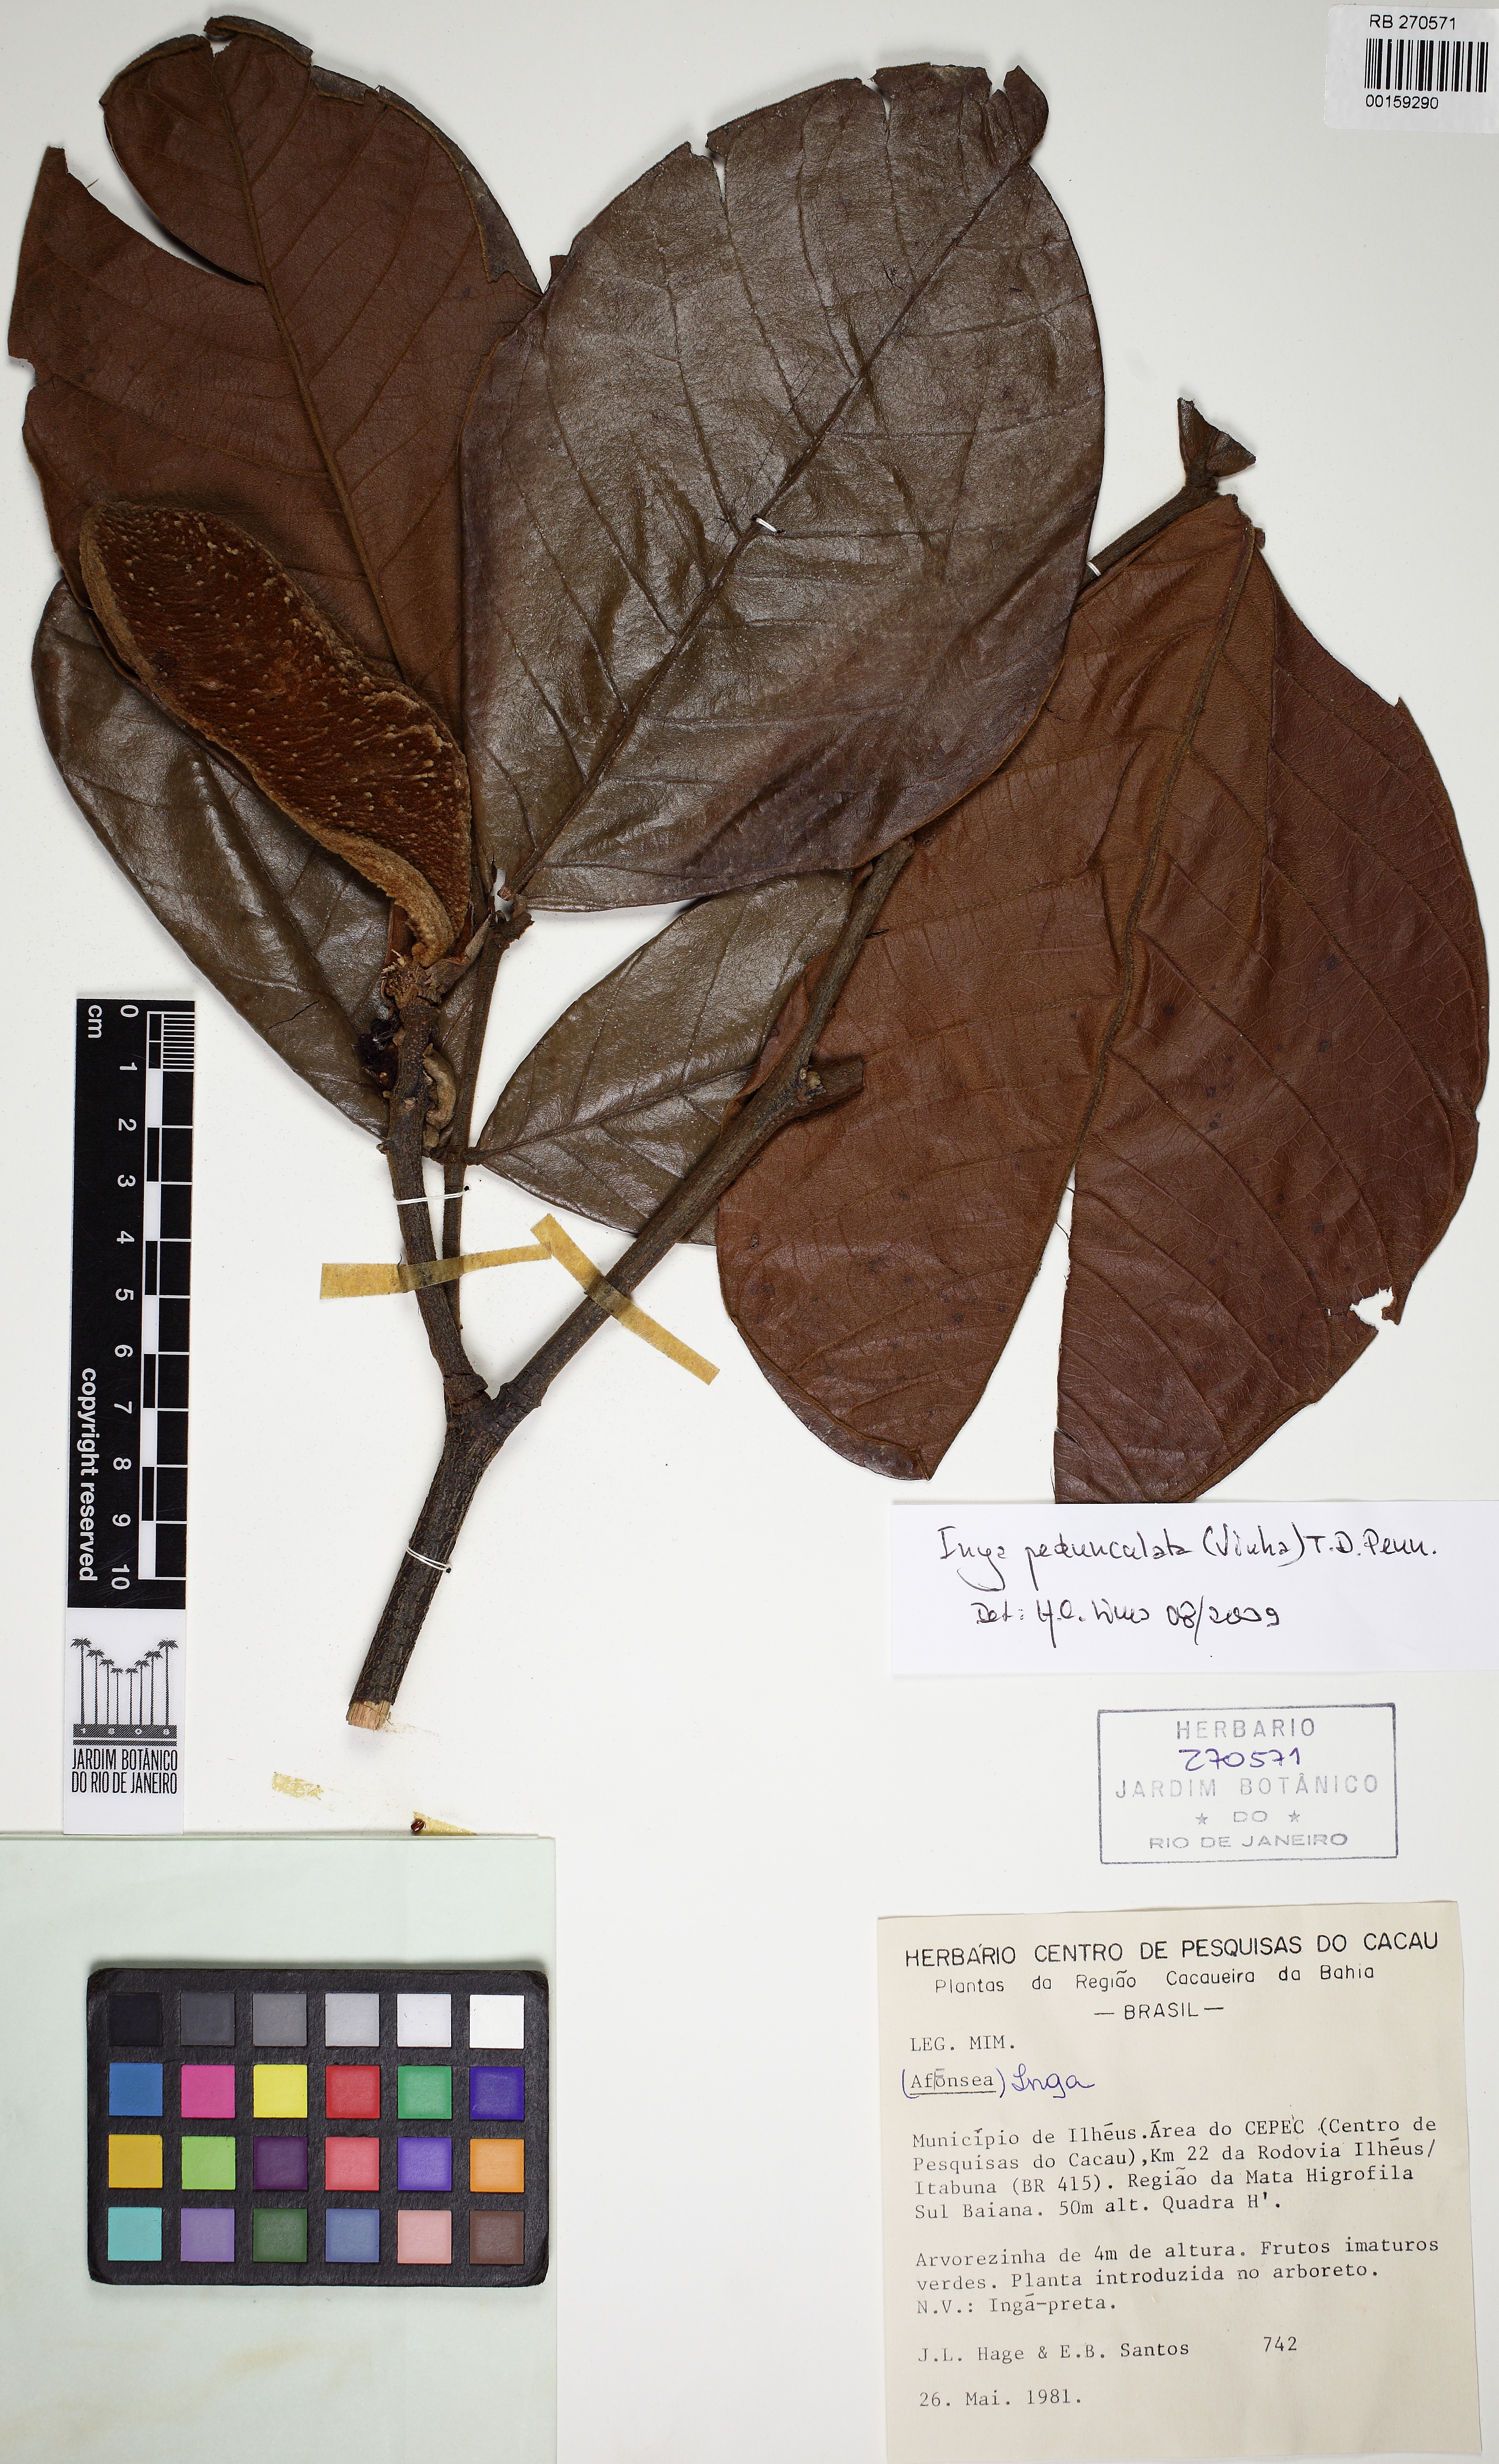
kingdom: Plantae
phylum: Tracheophyta
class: Magnoliopsida
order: Fabales
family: Fabaceae
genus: Inga
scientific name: Inga pedunculata
